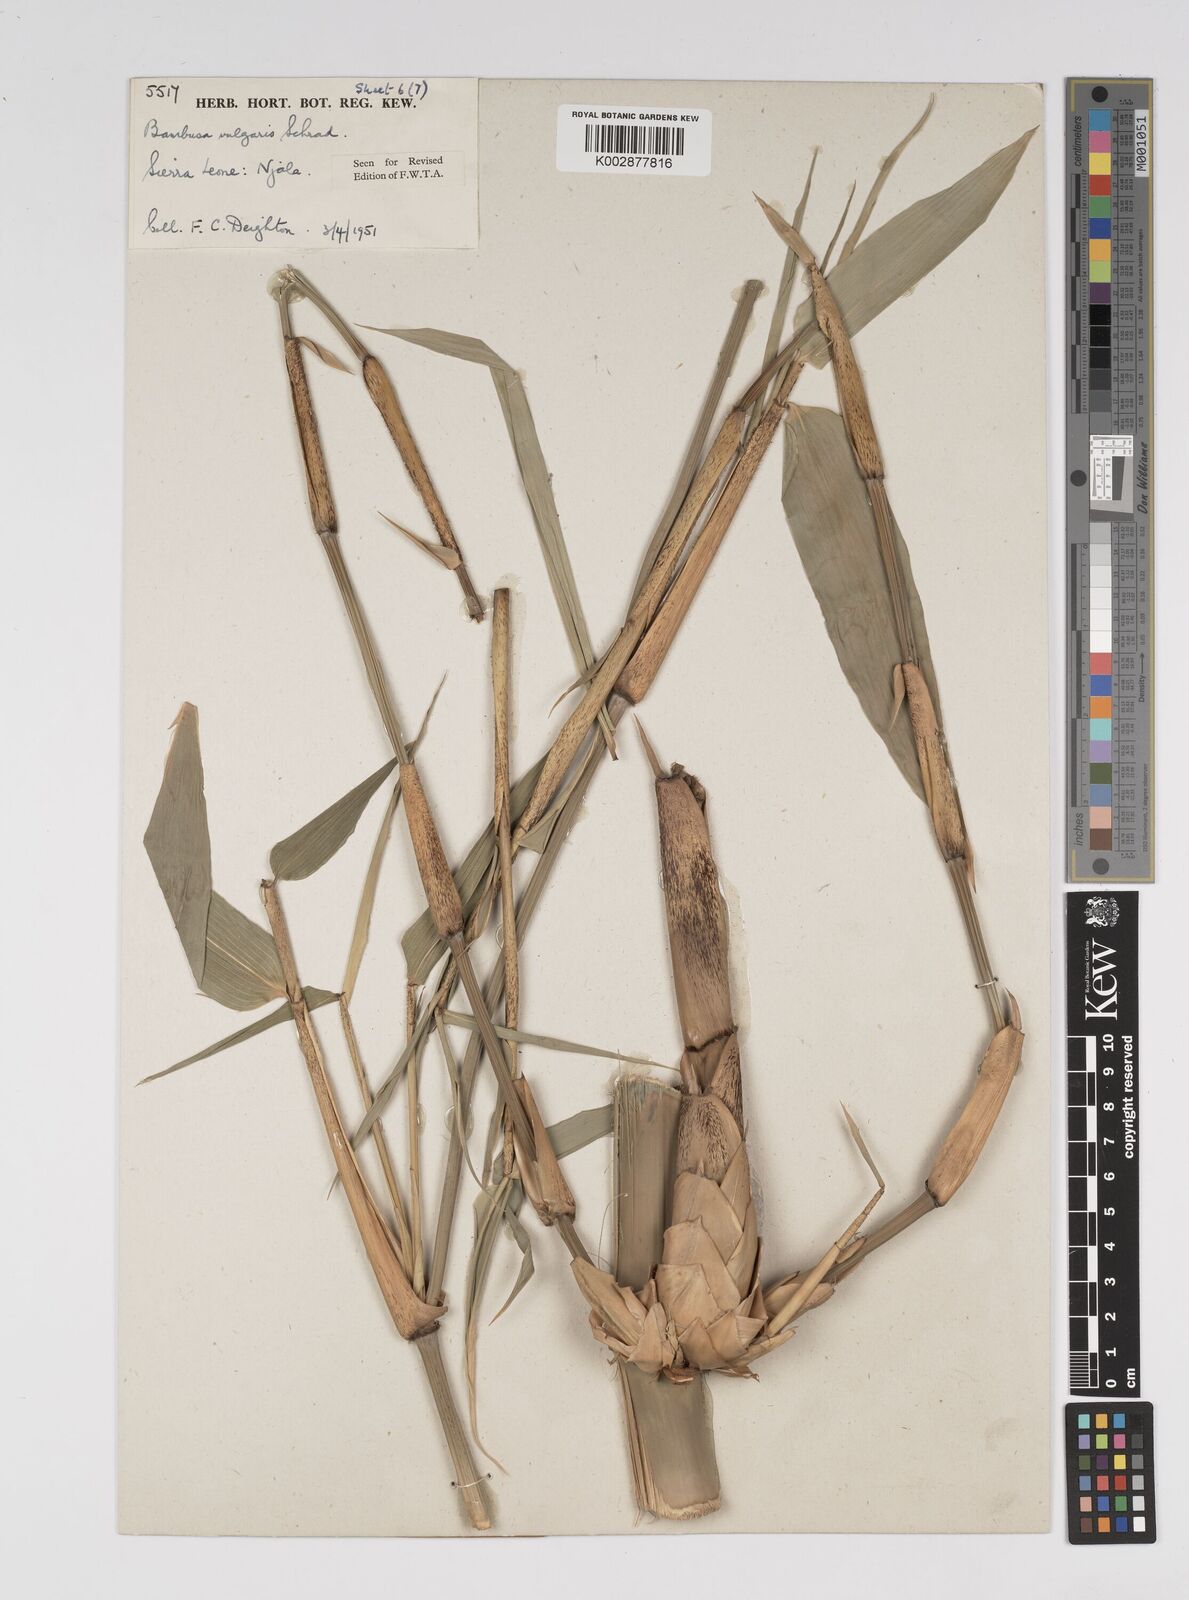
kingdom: Plantae
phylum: Tracheophyta
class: Liliopsida
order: Poales
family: Poaceae
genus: Bambusa
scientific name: Bambusa vulgaris
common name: Common bamboo
